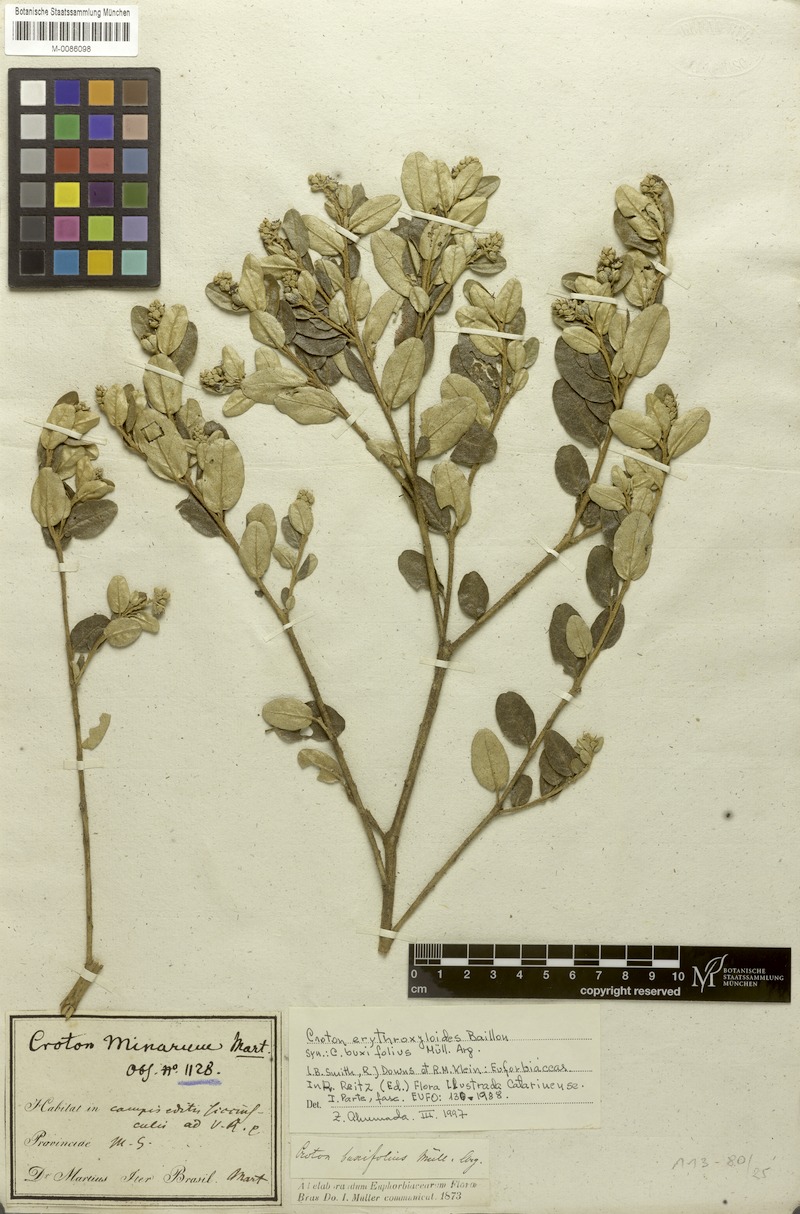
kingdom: Plantae
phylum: Tracheophyta
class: Magnoliopsida
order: Malpighiales
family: Euphorbiaceae
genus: Croton
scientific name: Croton erythroxyloides
